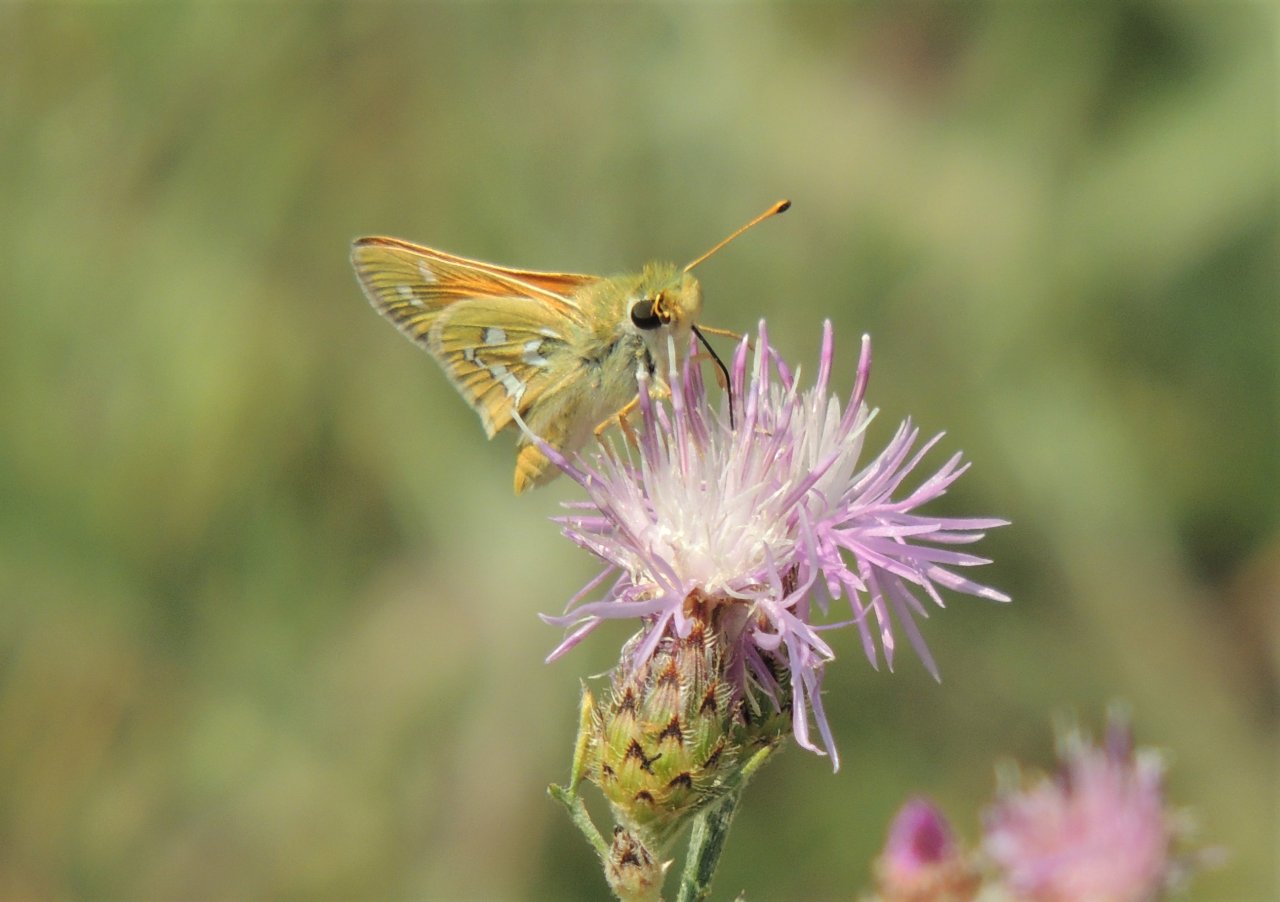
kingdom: Animalia
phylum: Arthropoda
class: Insecta
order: Lepidoptera
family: Hesperiidae
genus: Hesperia
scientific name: Hesperia comma
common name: Western Branded Skipper
